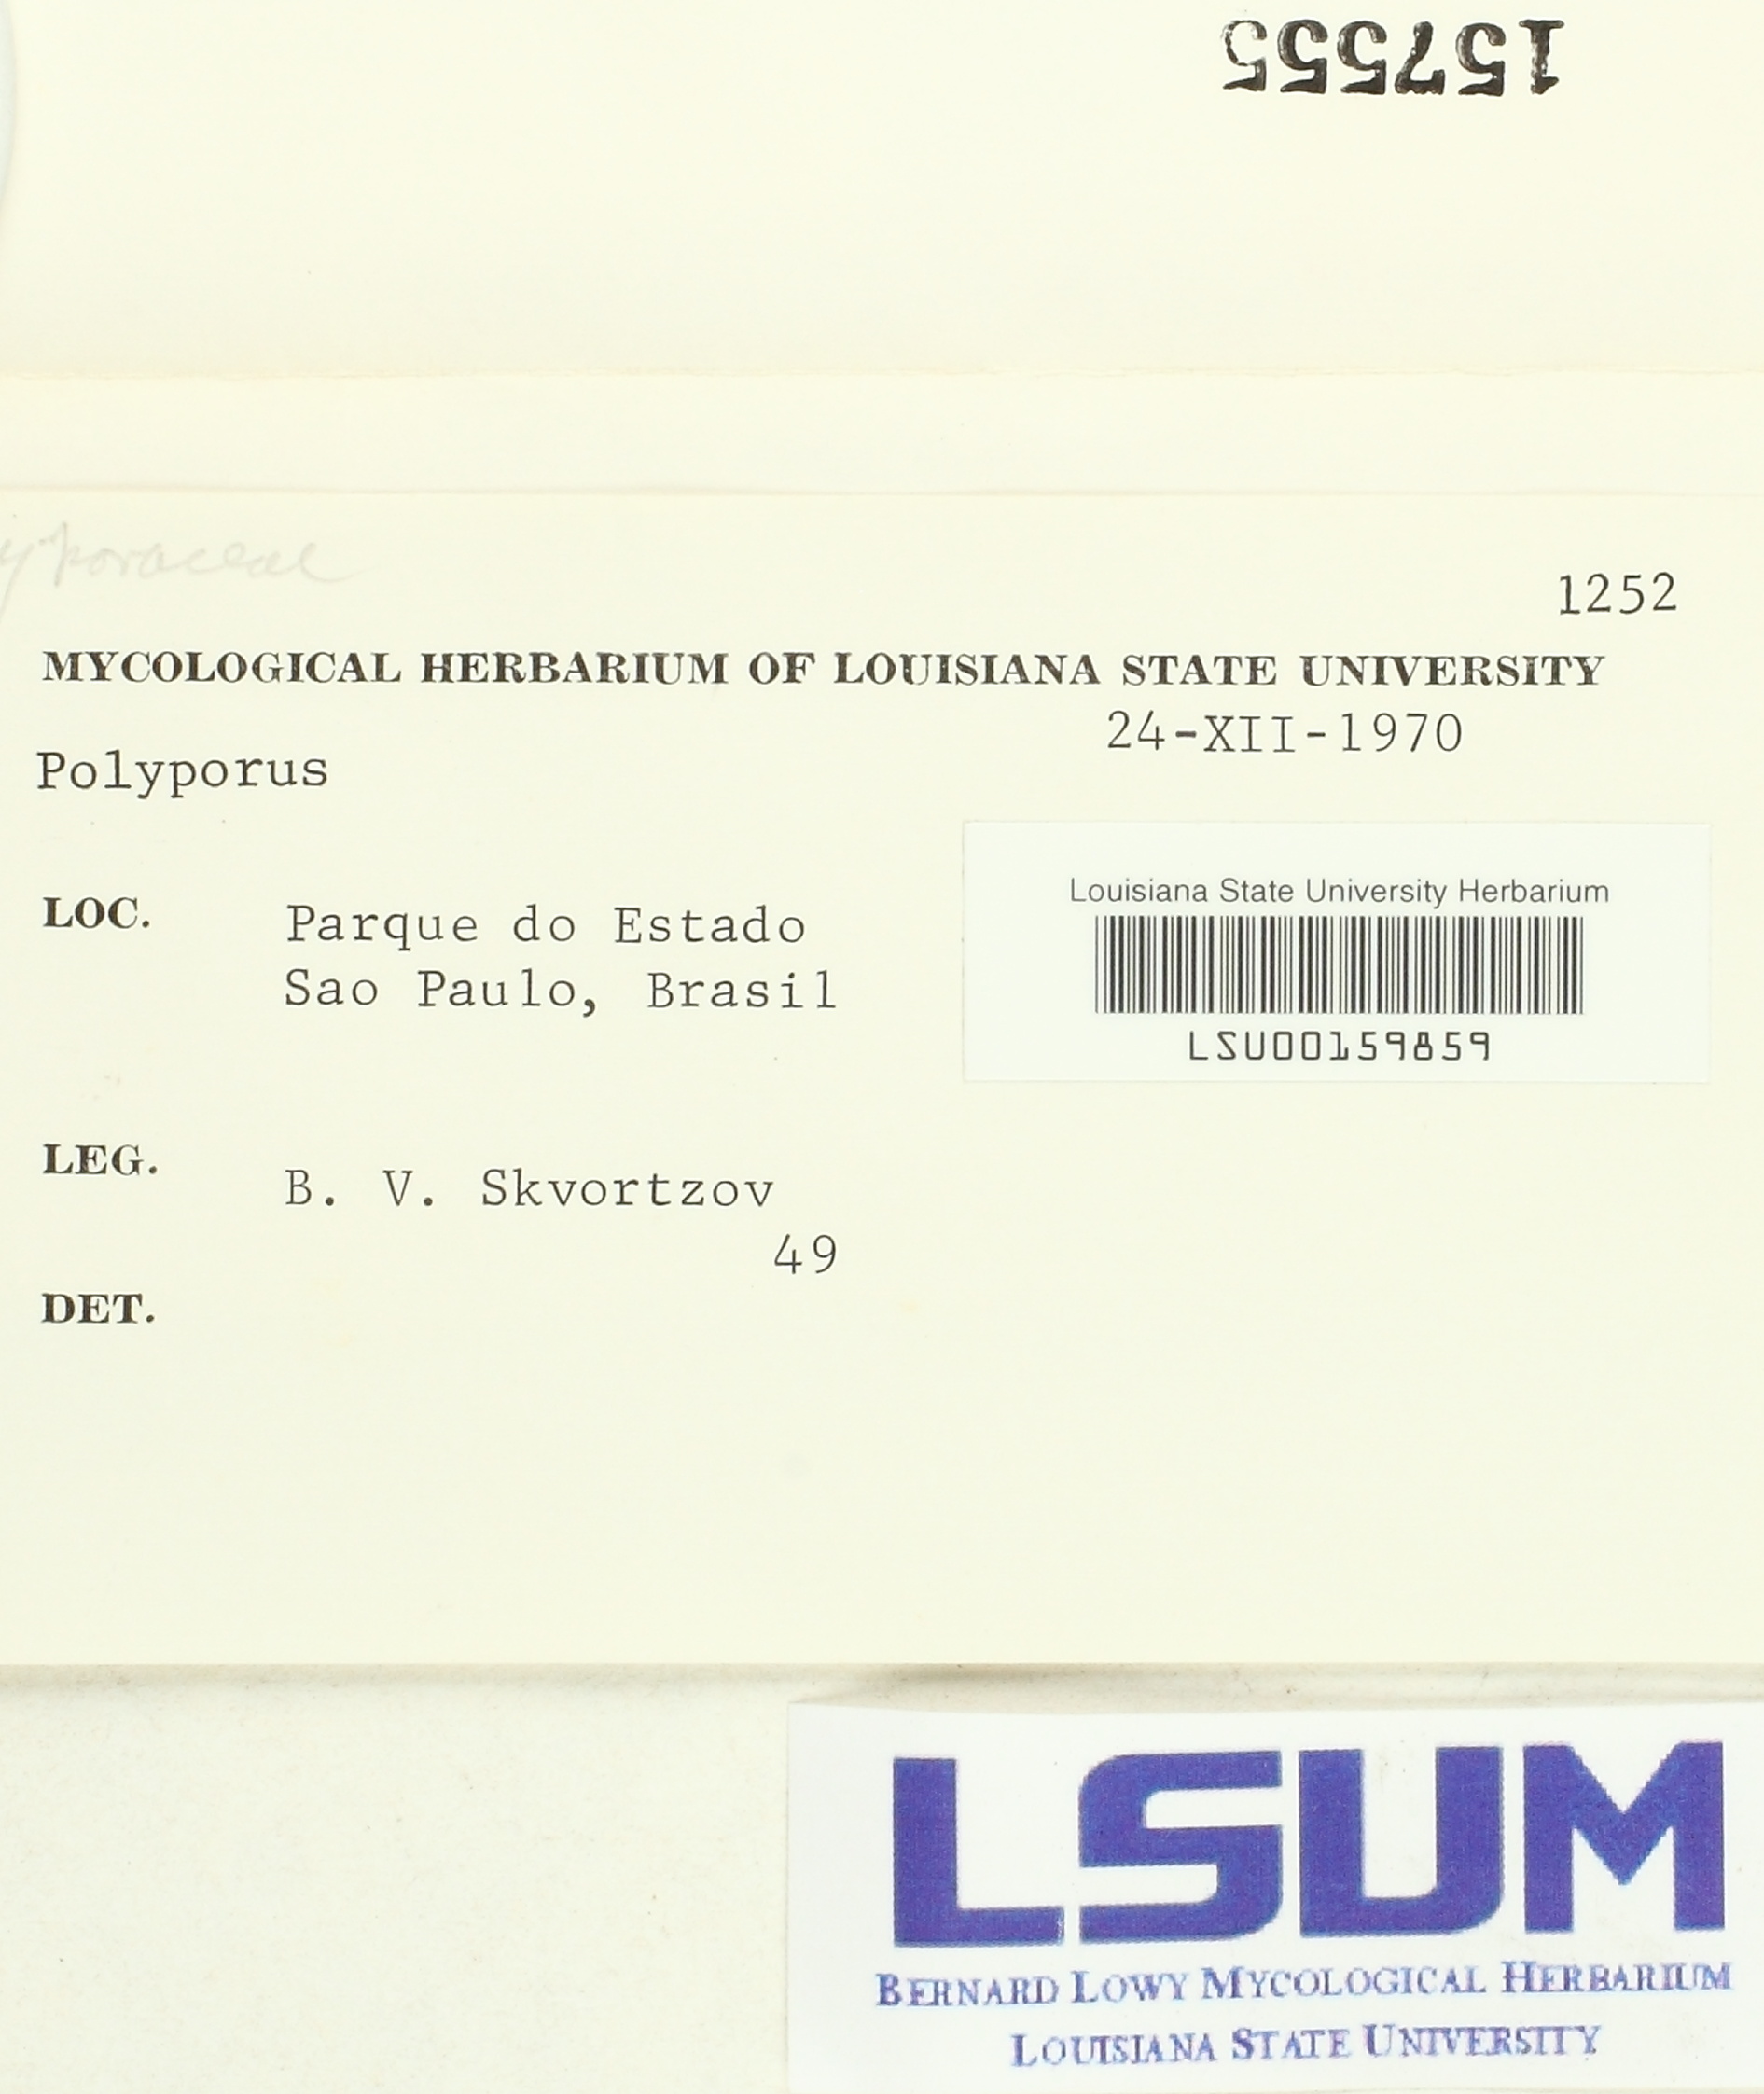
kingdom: Fungi
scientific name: Fungi
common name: Fungi
